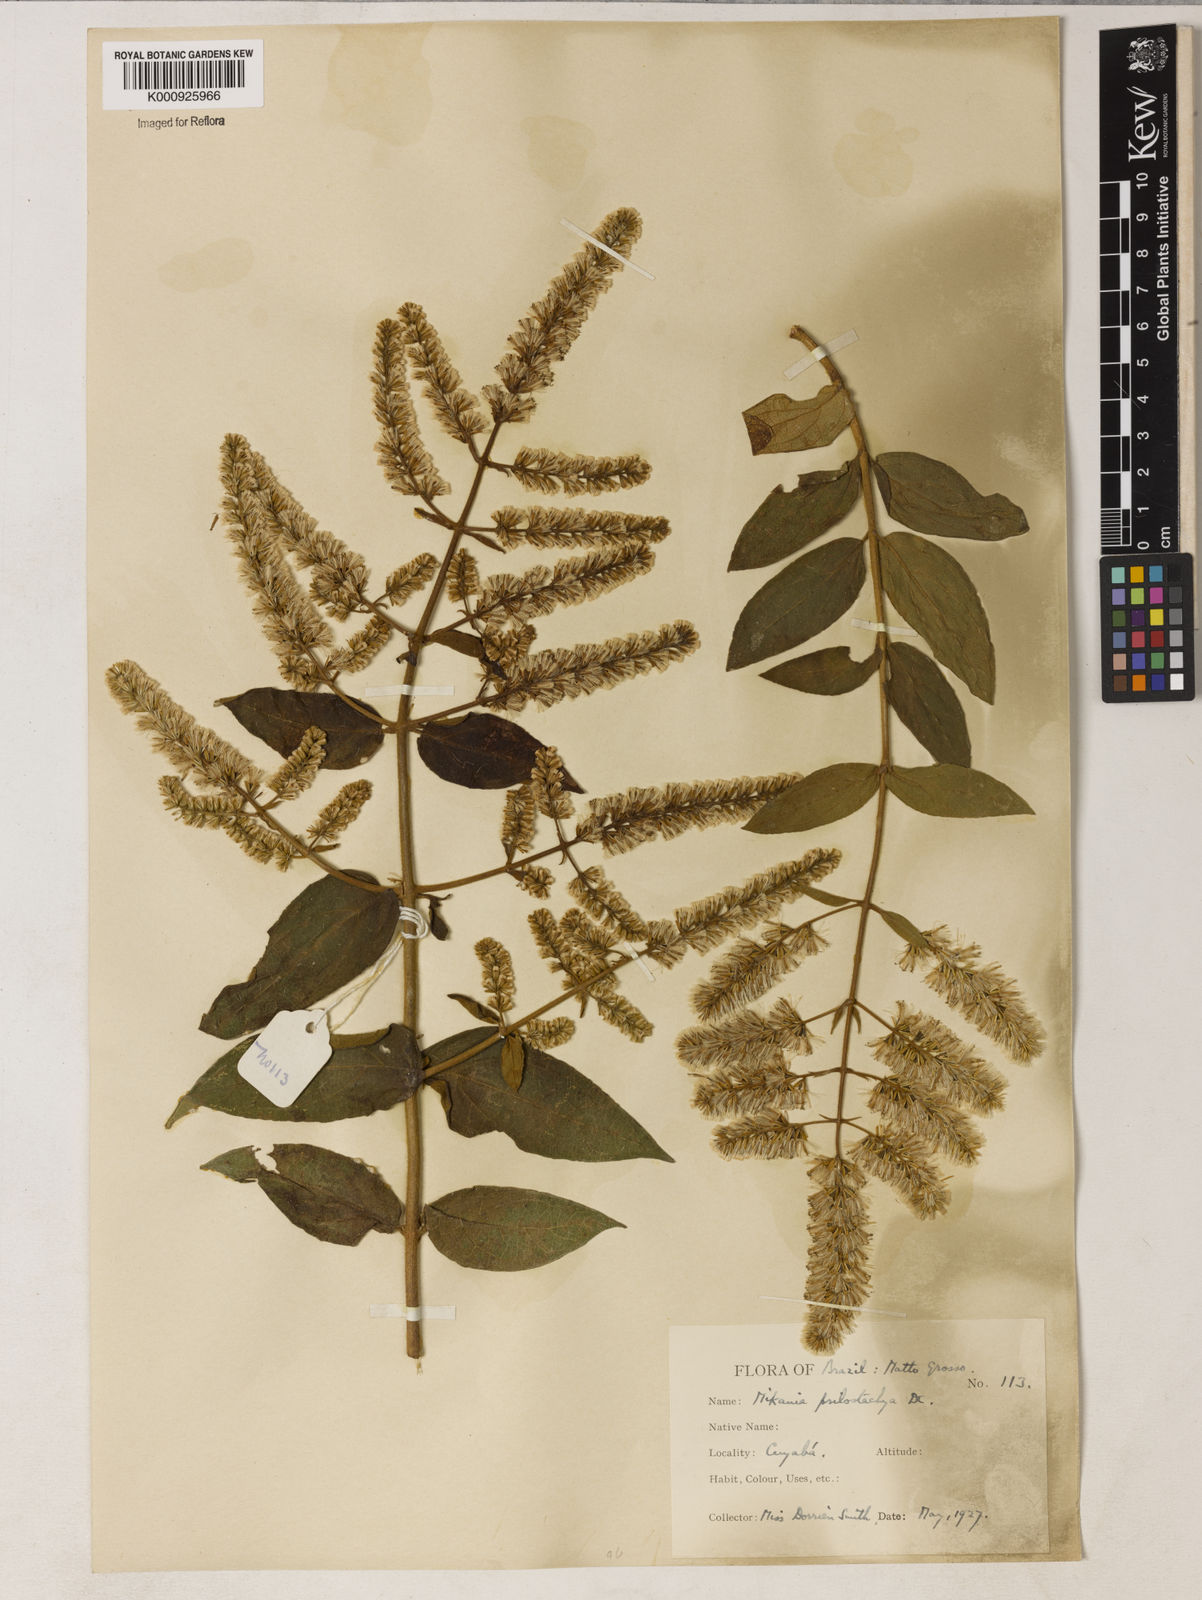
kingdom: Plantae
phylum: Tracheophyta
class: Magnoliopsida
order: Asterales
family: Asteraceae
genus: Mikania
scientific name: Mikania psilostachya
